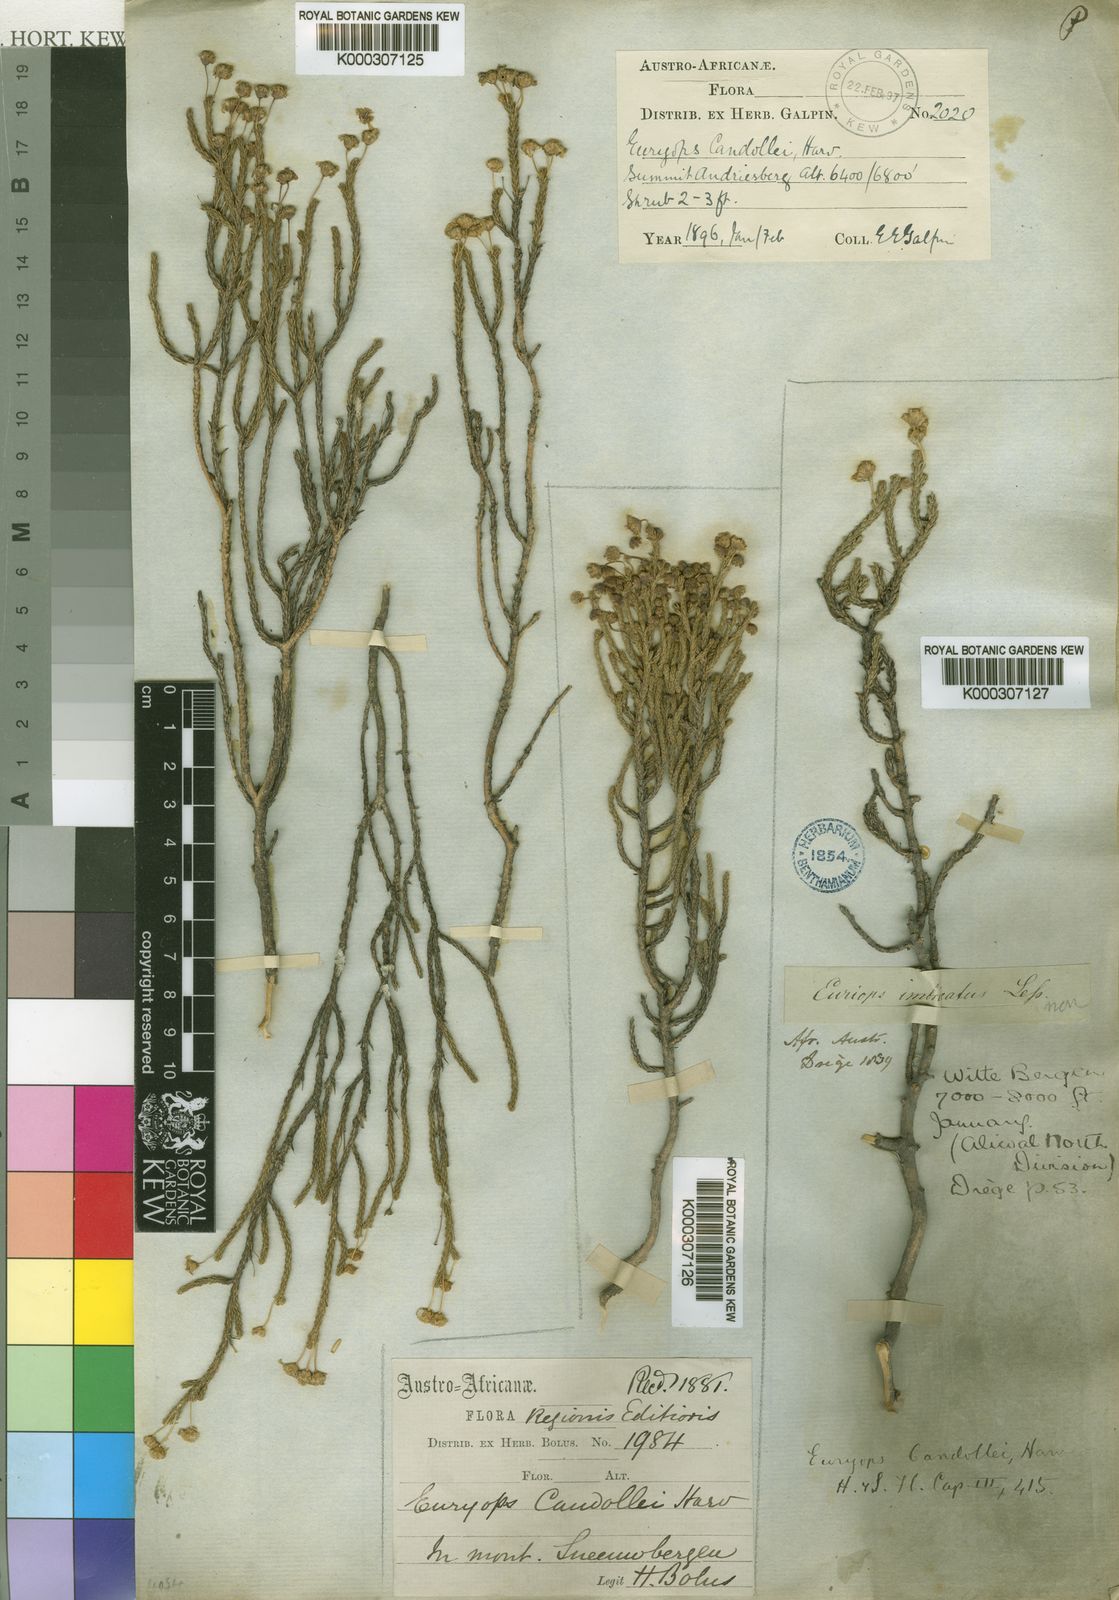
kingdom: Plantae
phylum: Tracheophyta
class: Magnoliopsida
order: Asterales
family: Asteraceae
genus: Euryops
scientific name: Euryops candollei
